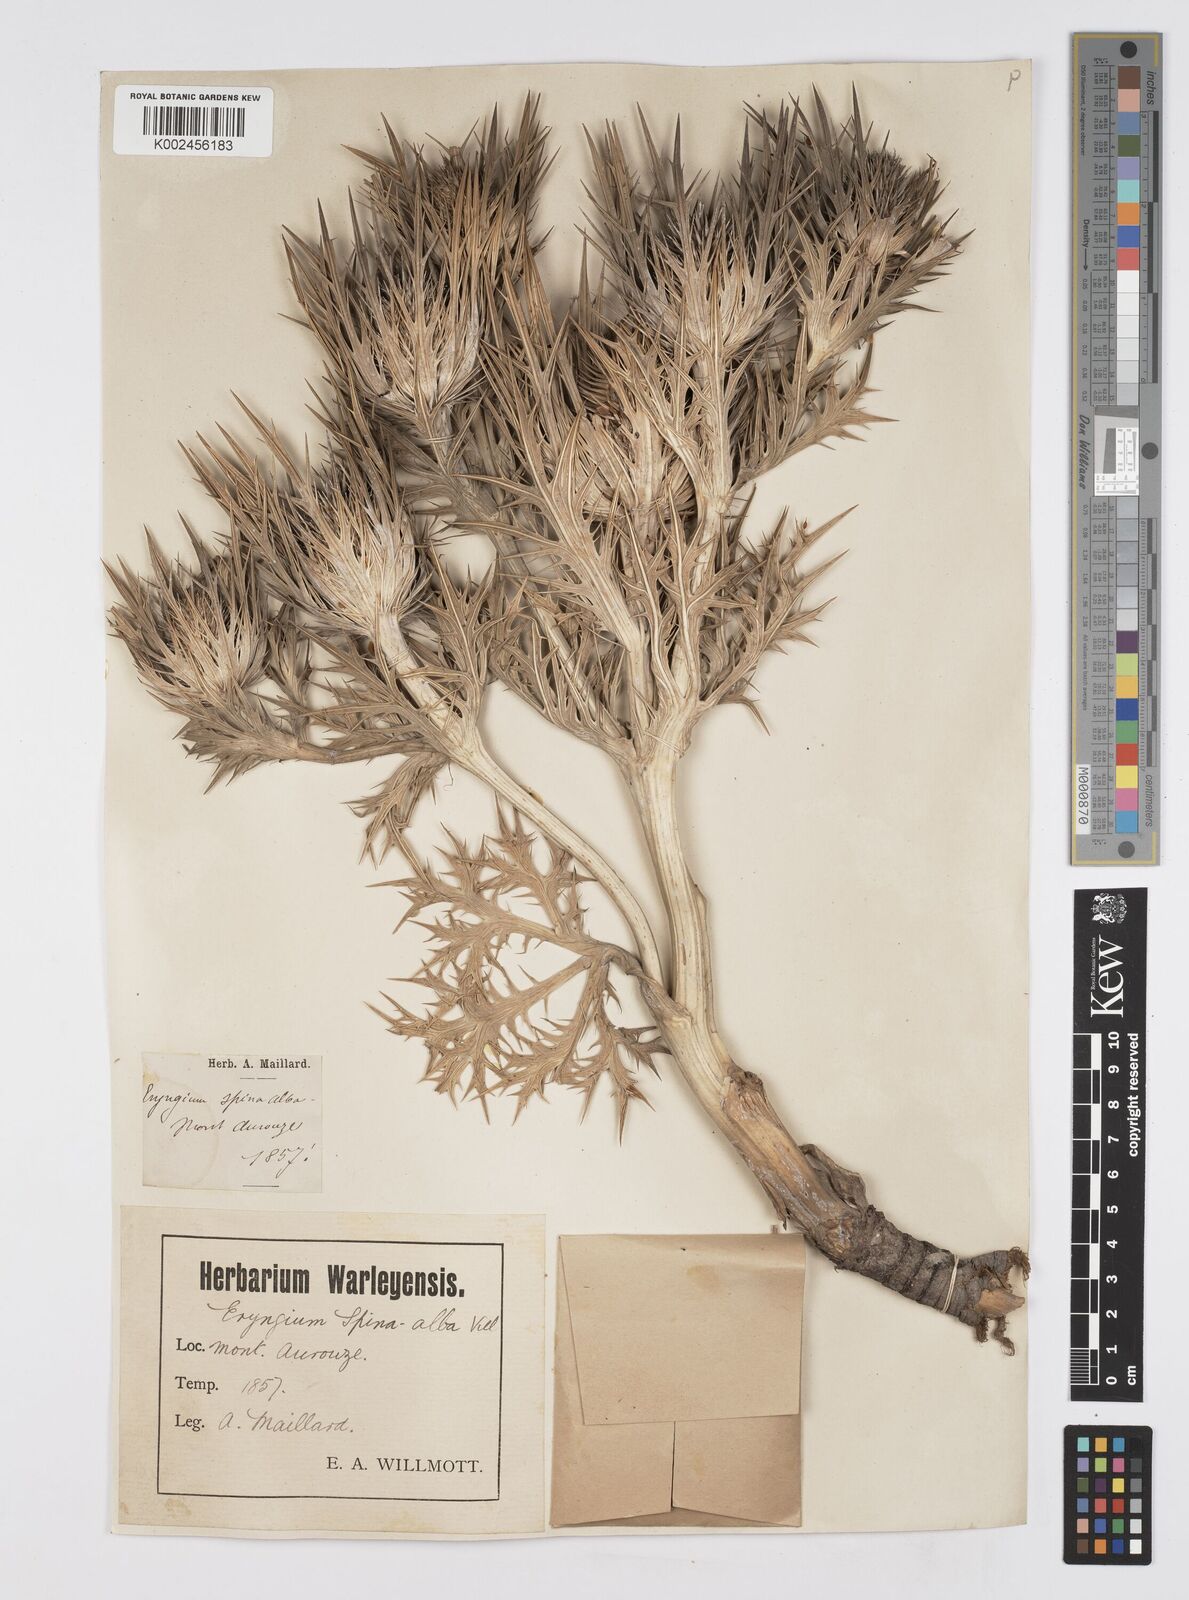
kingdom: Plantae
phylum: Tracheophyta
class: Magnoliopsida
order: Apiales
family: Apiaceae
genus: Eryngium
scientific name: Eryngium spinalba
